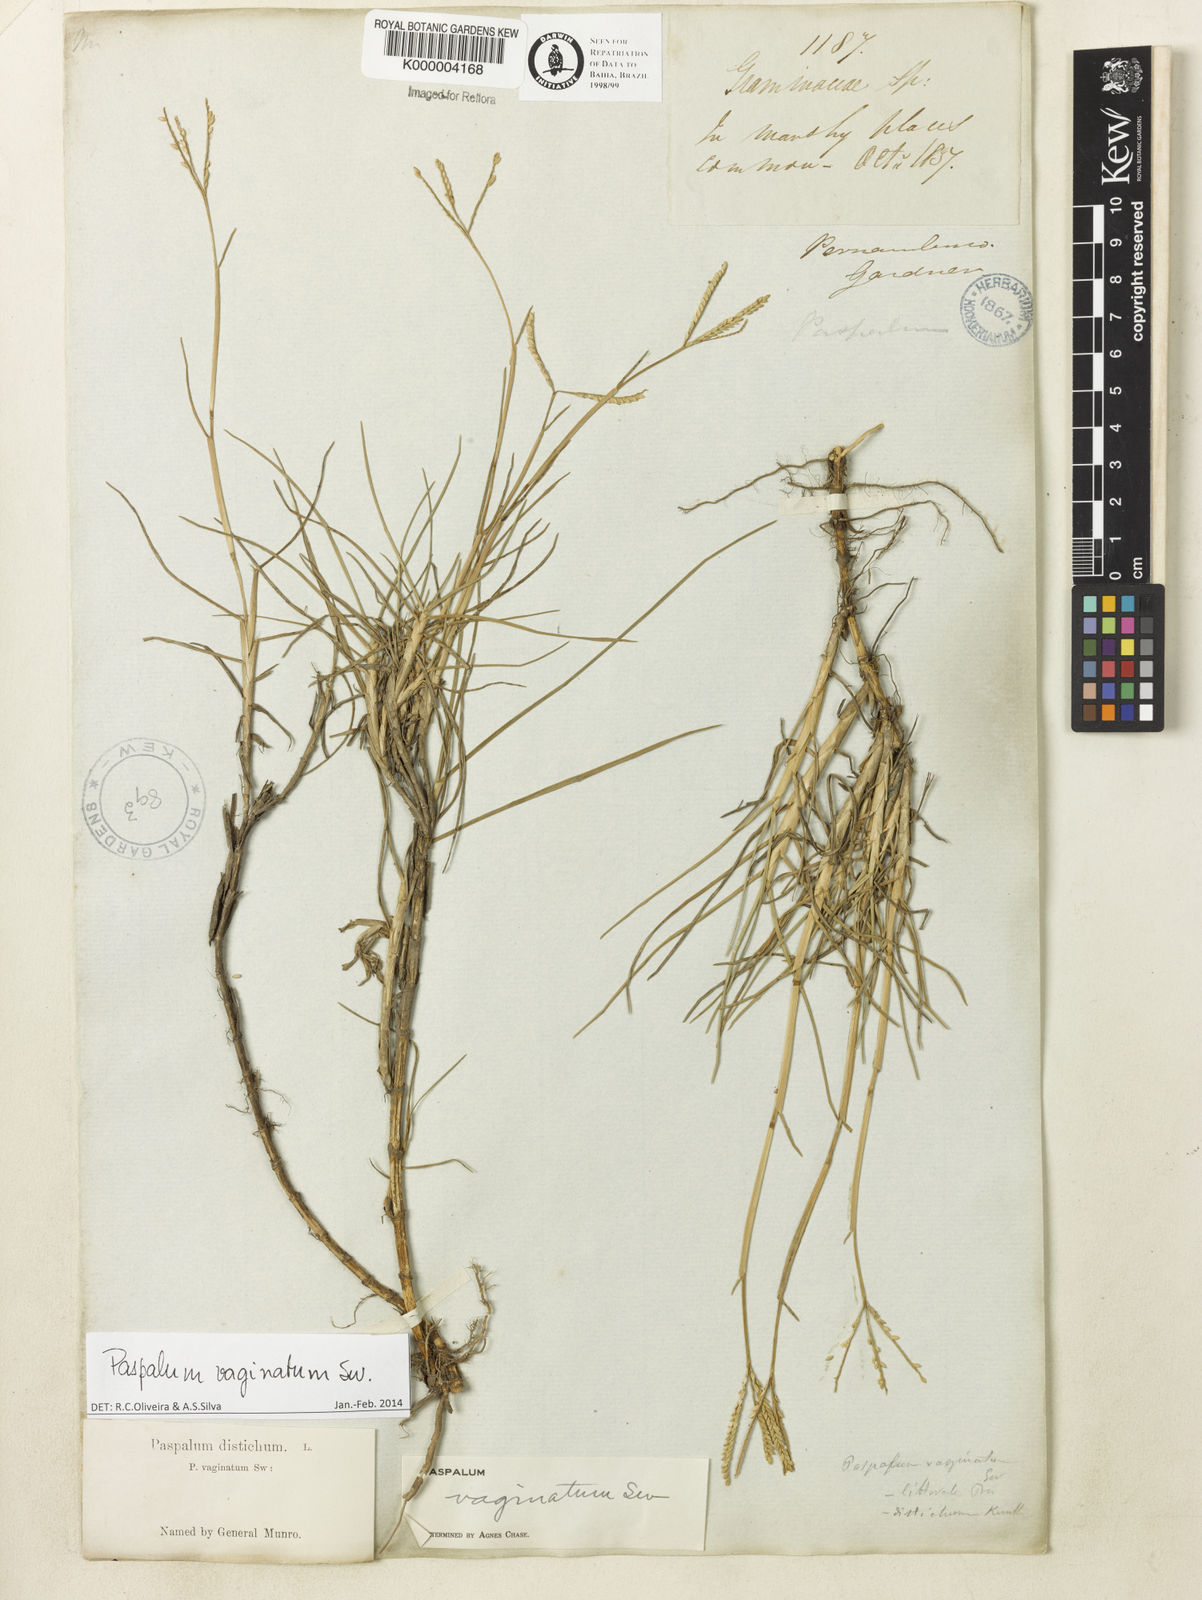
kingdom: Plantae
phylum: Tracheophyta
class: Liliopsida
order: Poales
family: Poaceae
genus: Paspalum
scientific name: Paspalum distichum
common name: Knotgrass
